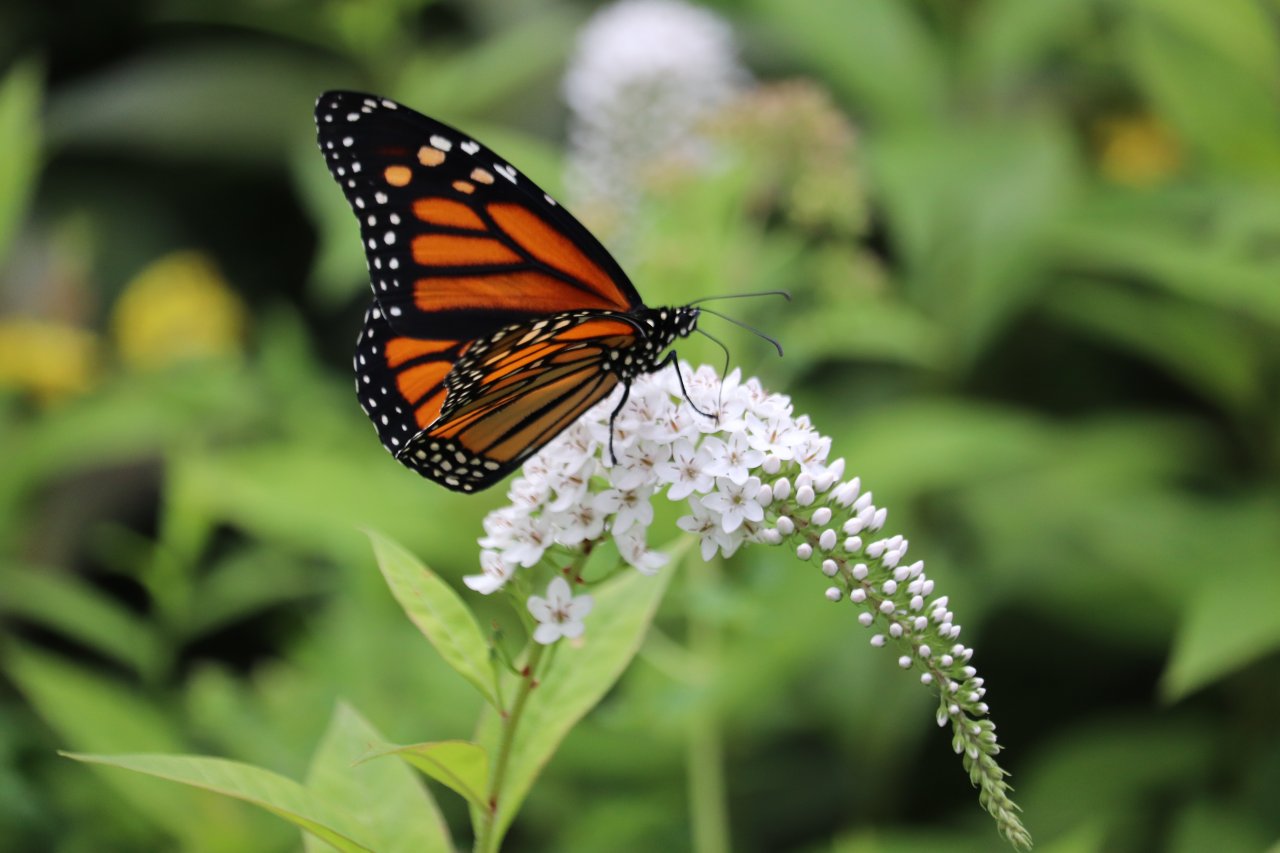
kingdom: Animalia
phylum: Arthropoda
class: Insecta
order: Lepidoptera
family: Nymphalidae
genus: Danaus
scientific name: Danaus plexippus
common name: Monarch
